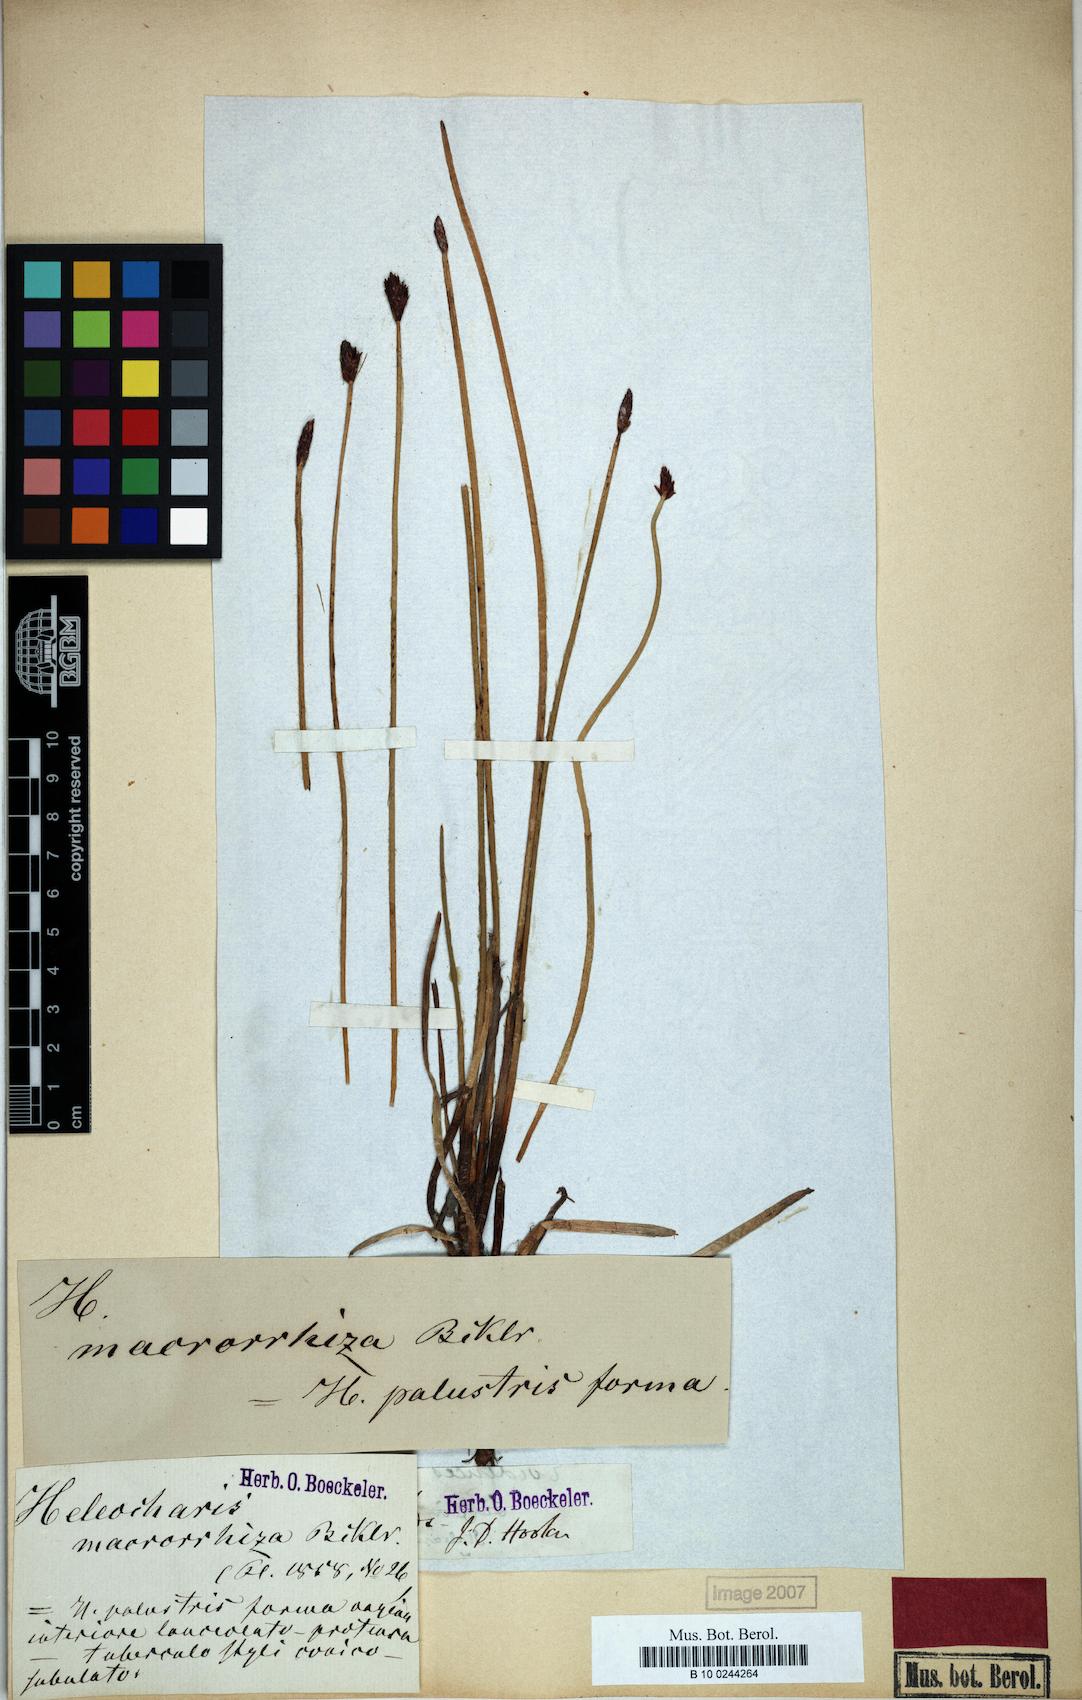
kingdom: Plantae
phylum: Tracheophyta
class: Liliopsida
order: Poales
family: Cyperaceae
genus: Eleocharis
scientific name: Eleocharis melanostachys
